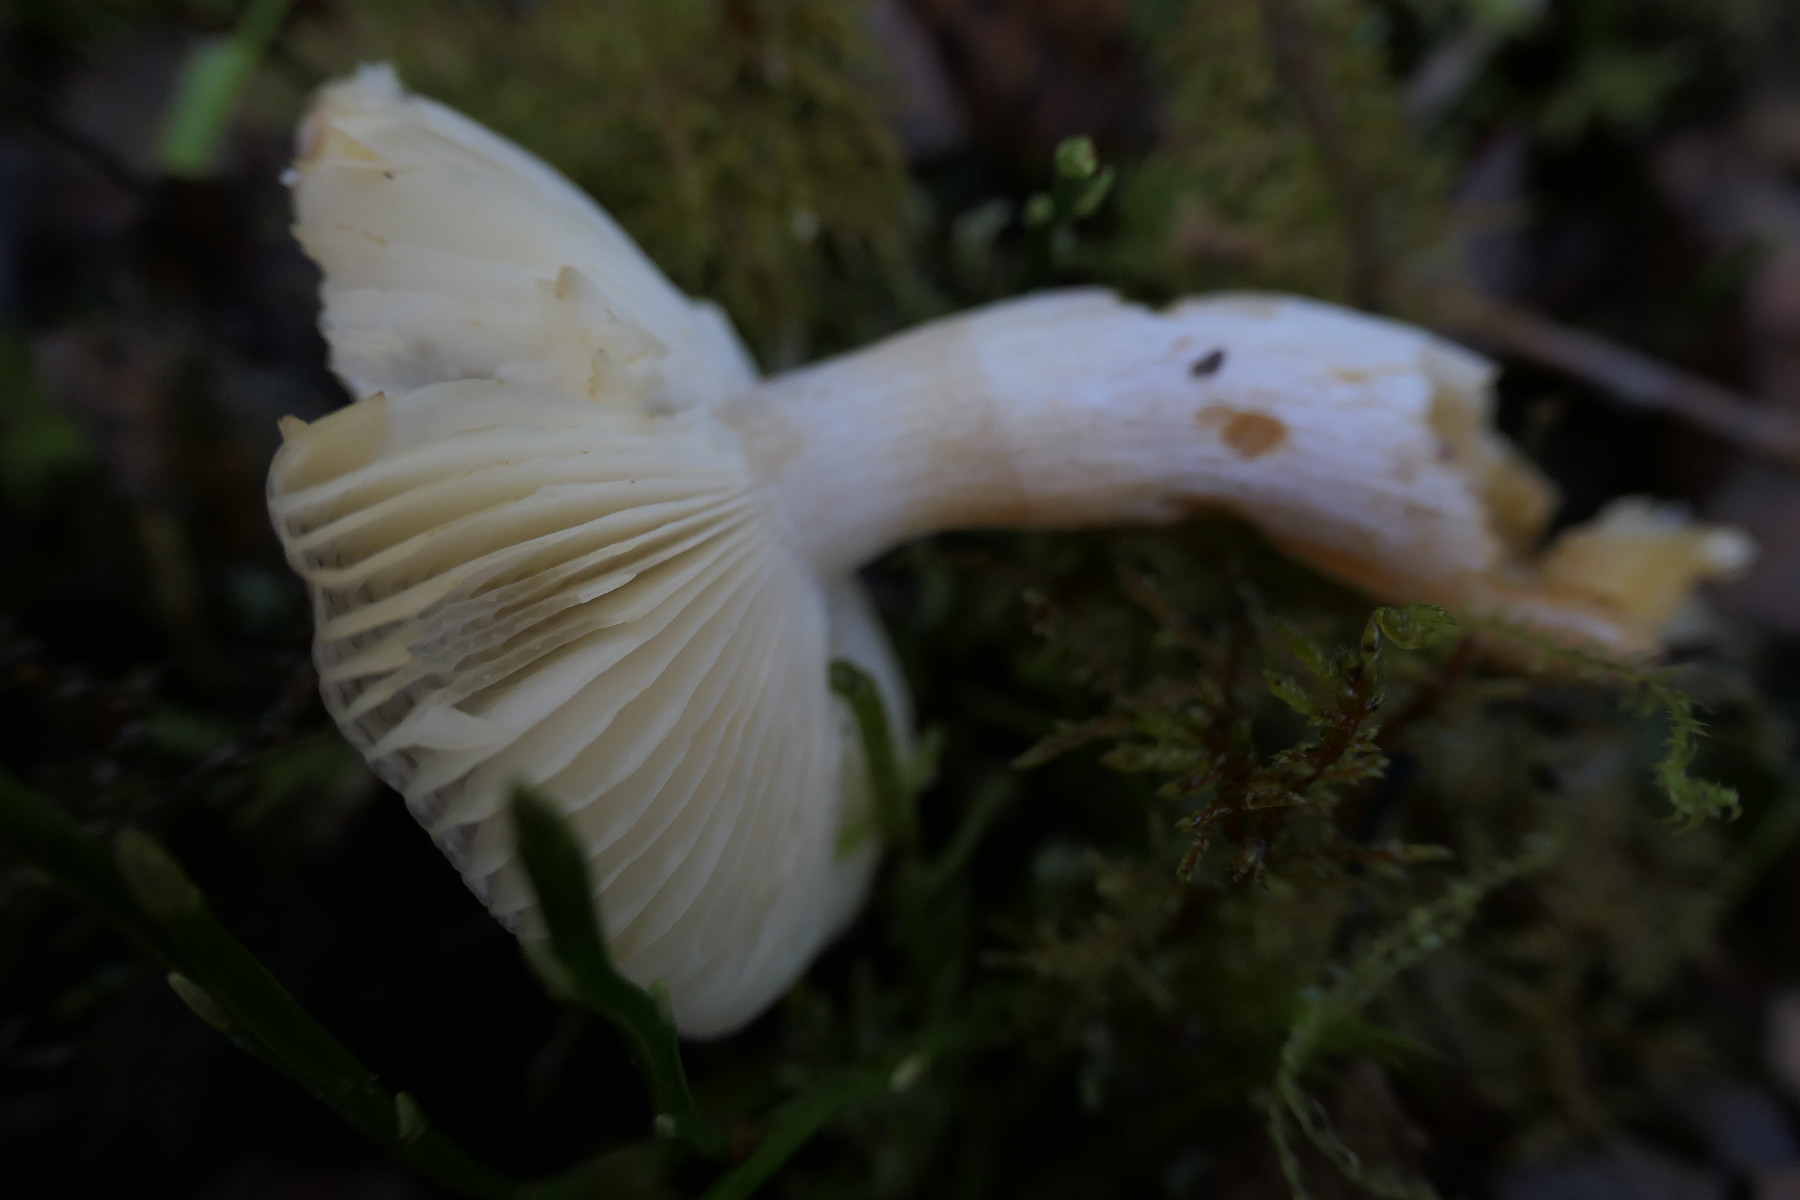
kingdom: Fungi
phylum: Basidiomycota
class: Agaricomycetes
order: Russulales
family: Russulaceae
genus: Russula
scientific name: Russula puellaris
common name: gulstokket skørhat
